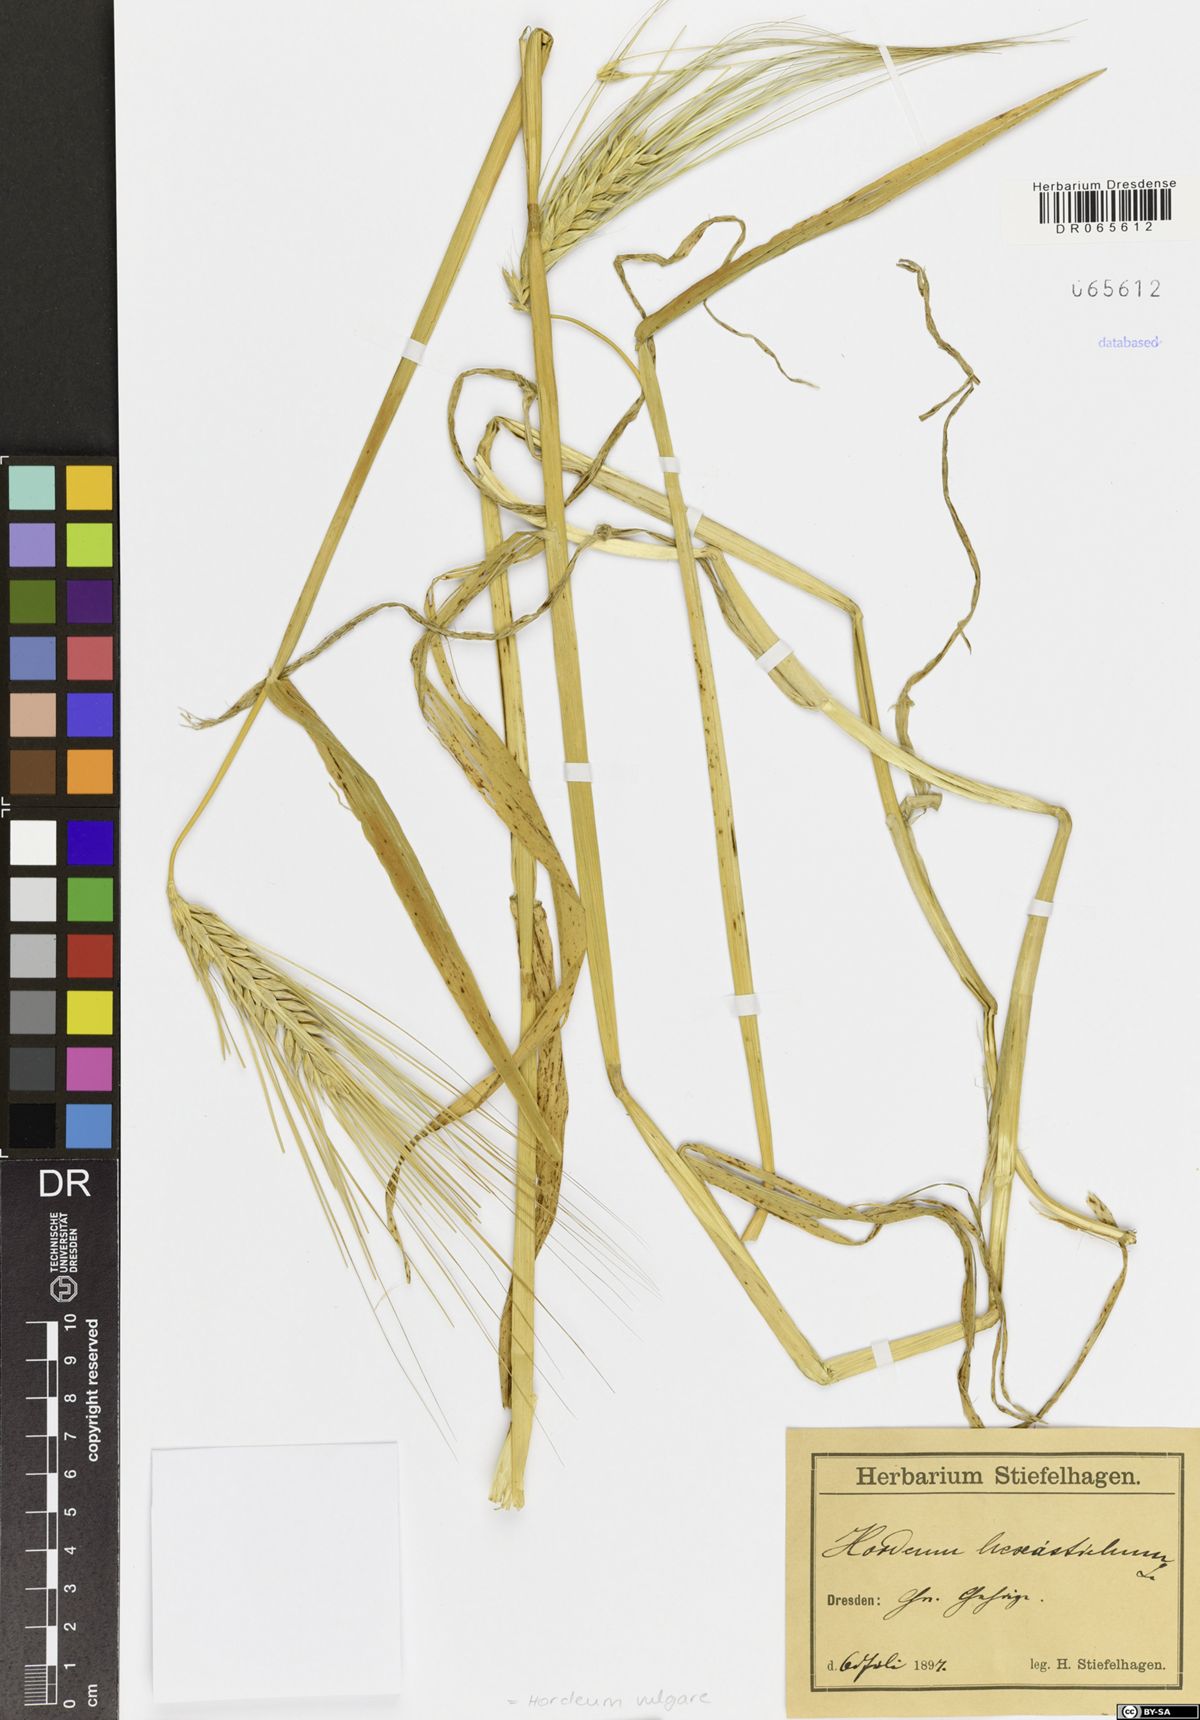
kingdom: Plantae
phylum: Tracheophyta
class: Liliopsida
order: Poales
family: Poaceae
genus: Hordeum
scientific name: Hordeum vulgare
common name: Common barley
